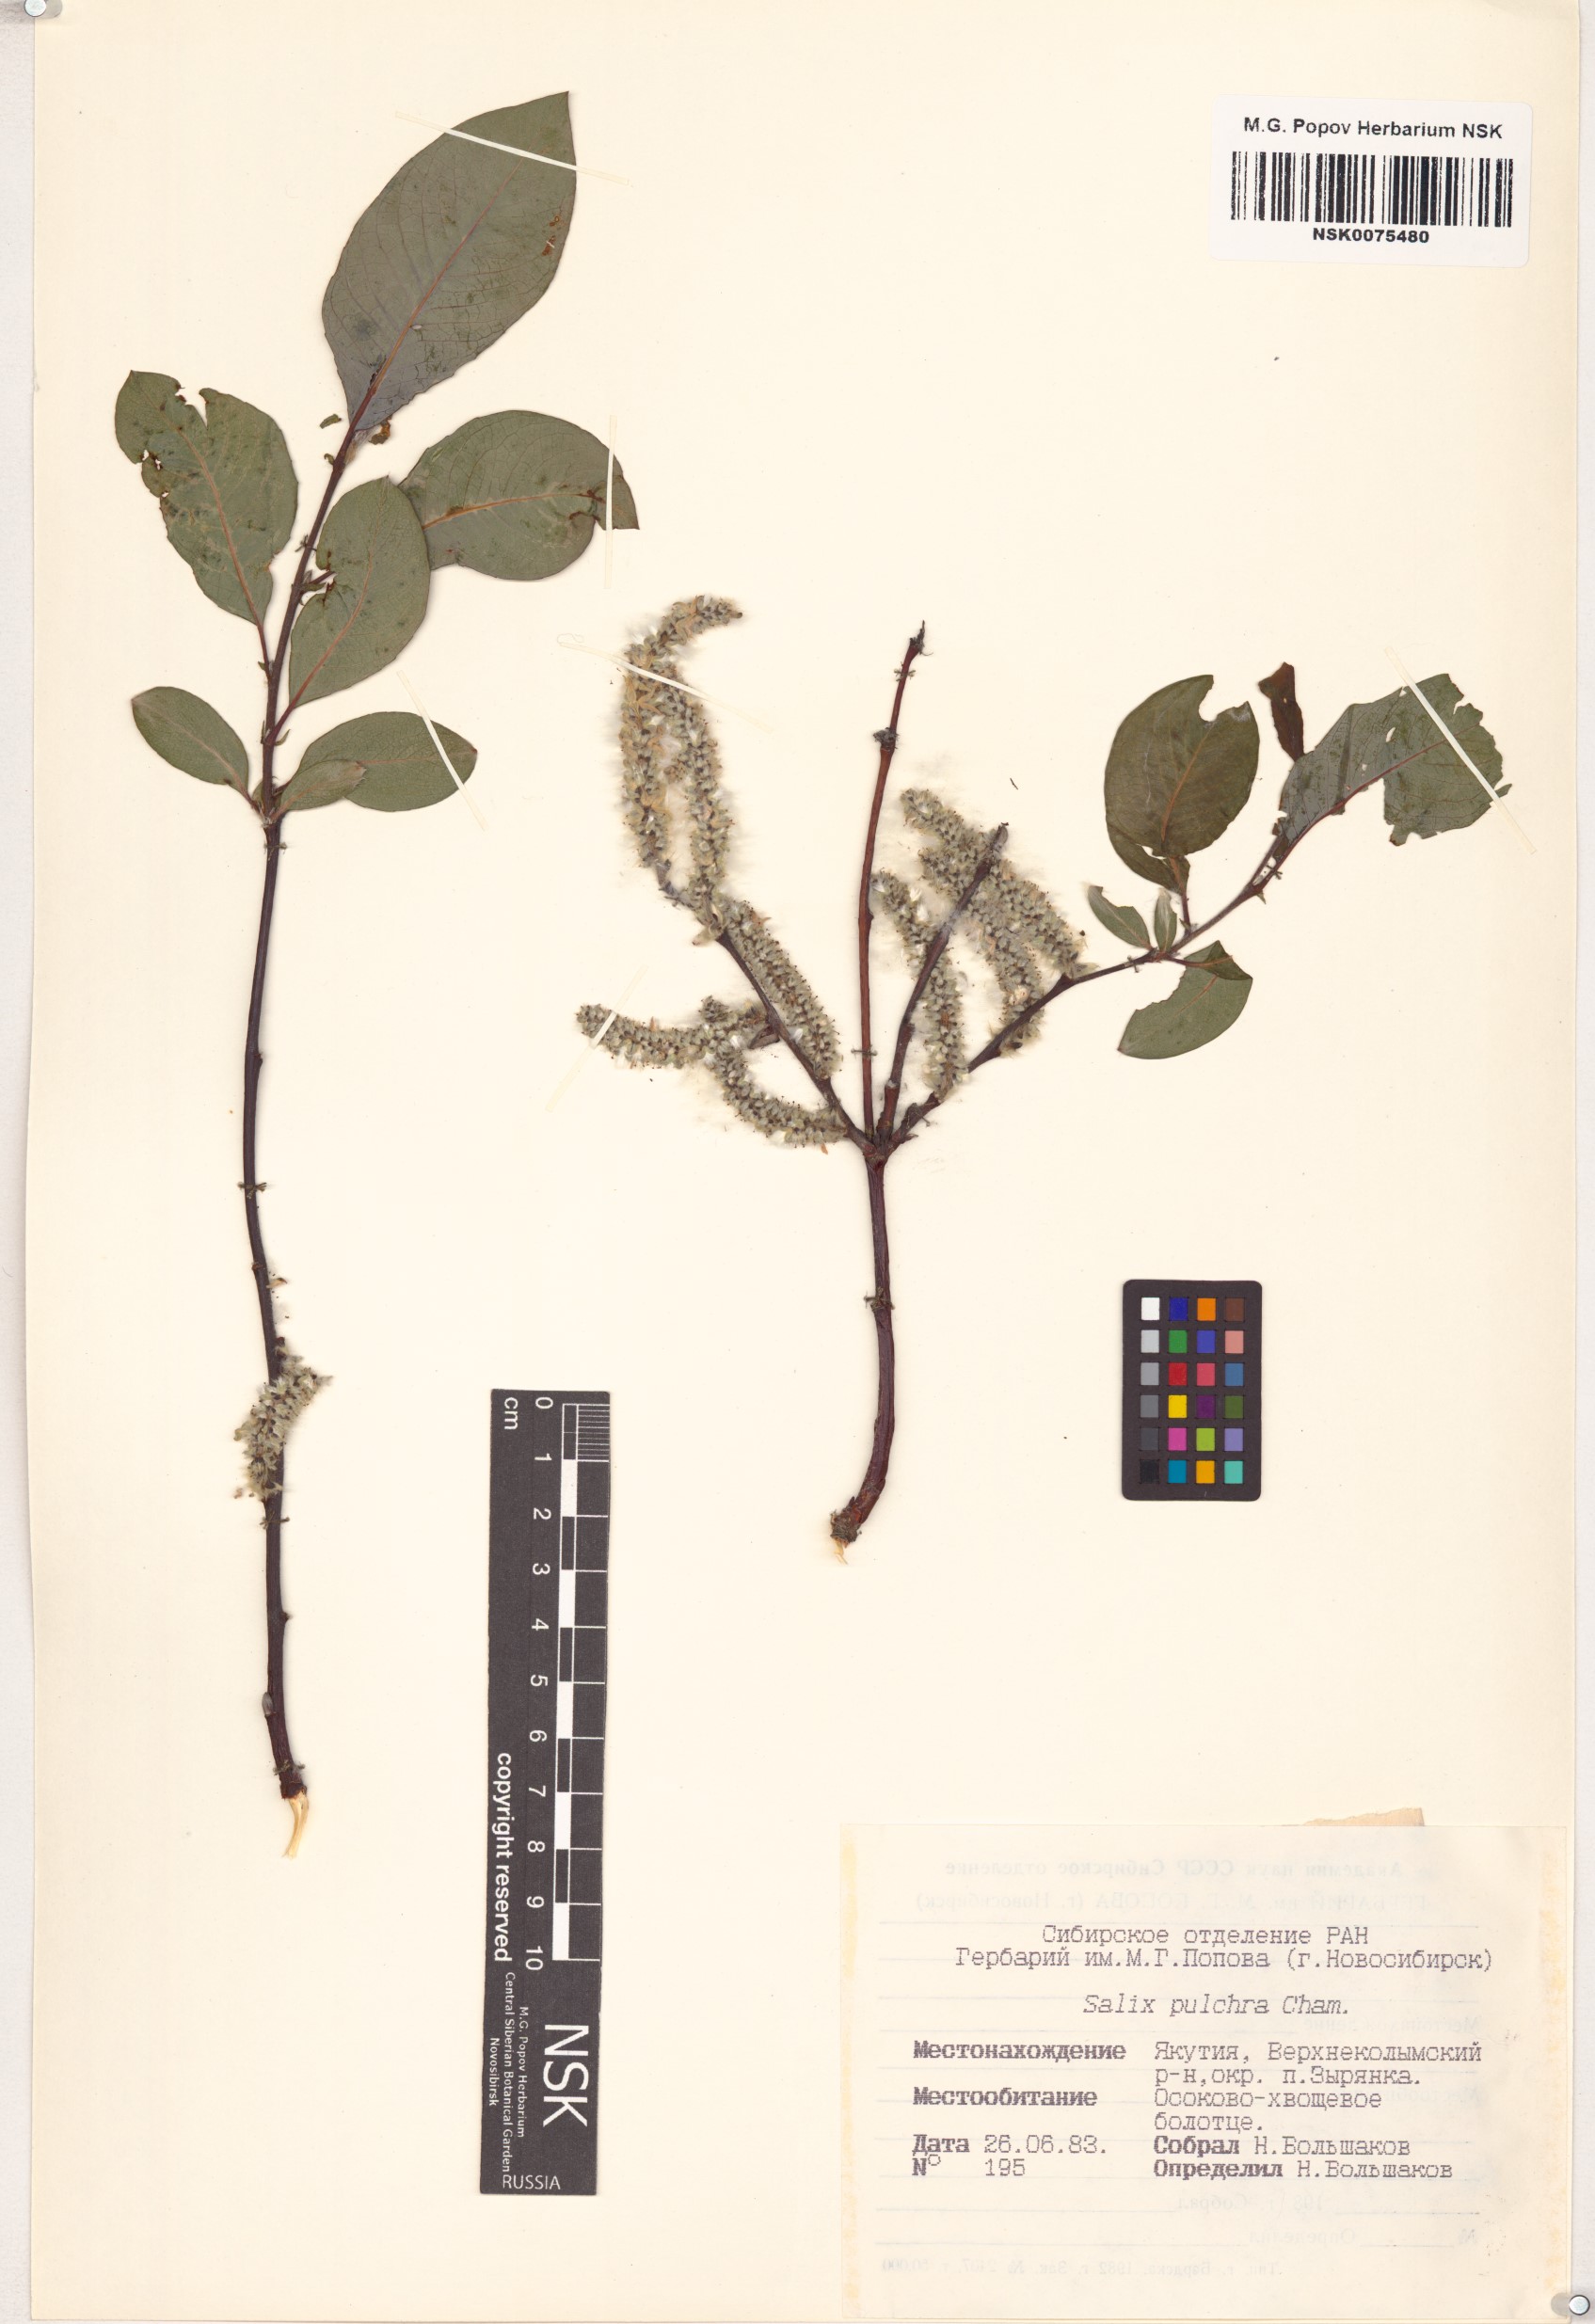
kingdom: Plantae
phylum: Tracheophyta
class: Magnoliopsida
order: Malpighiales
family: Salicaceae
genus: Salix
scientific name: Salix pulchra
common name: Diamond-leaved willow
